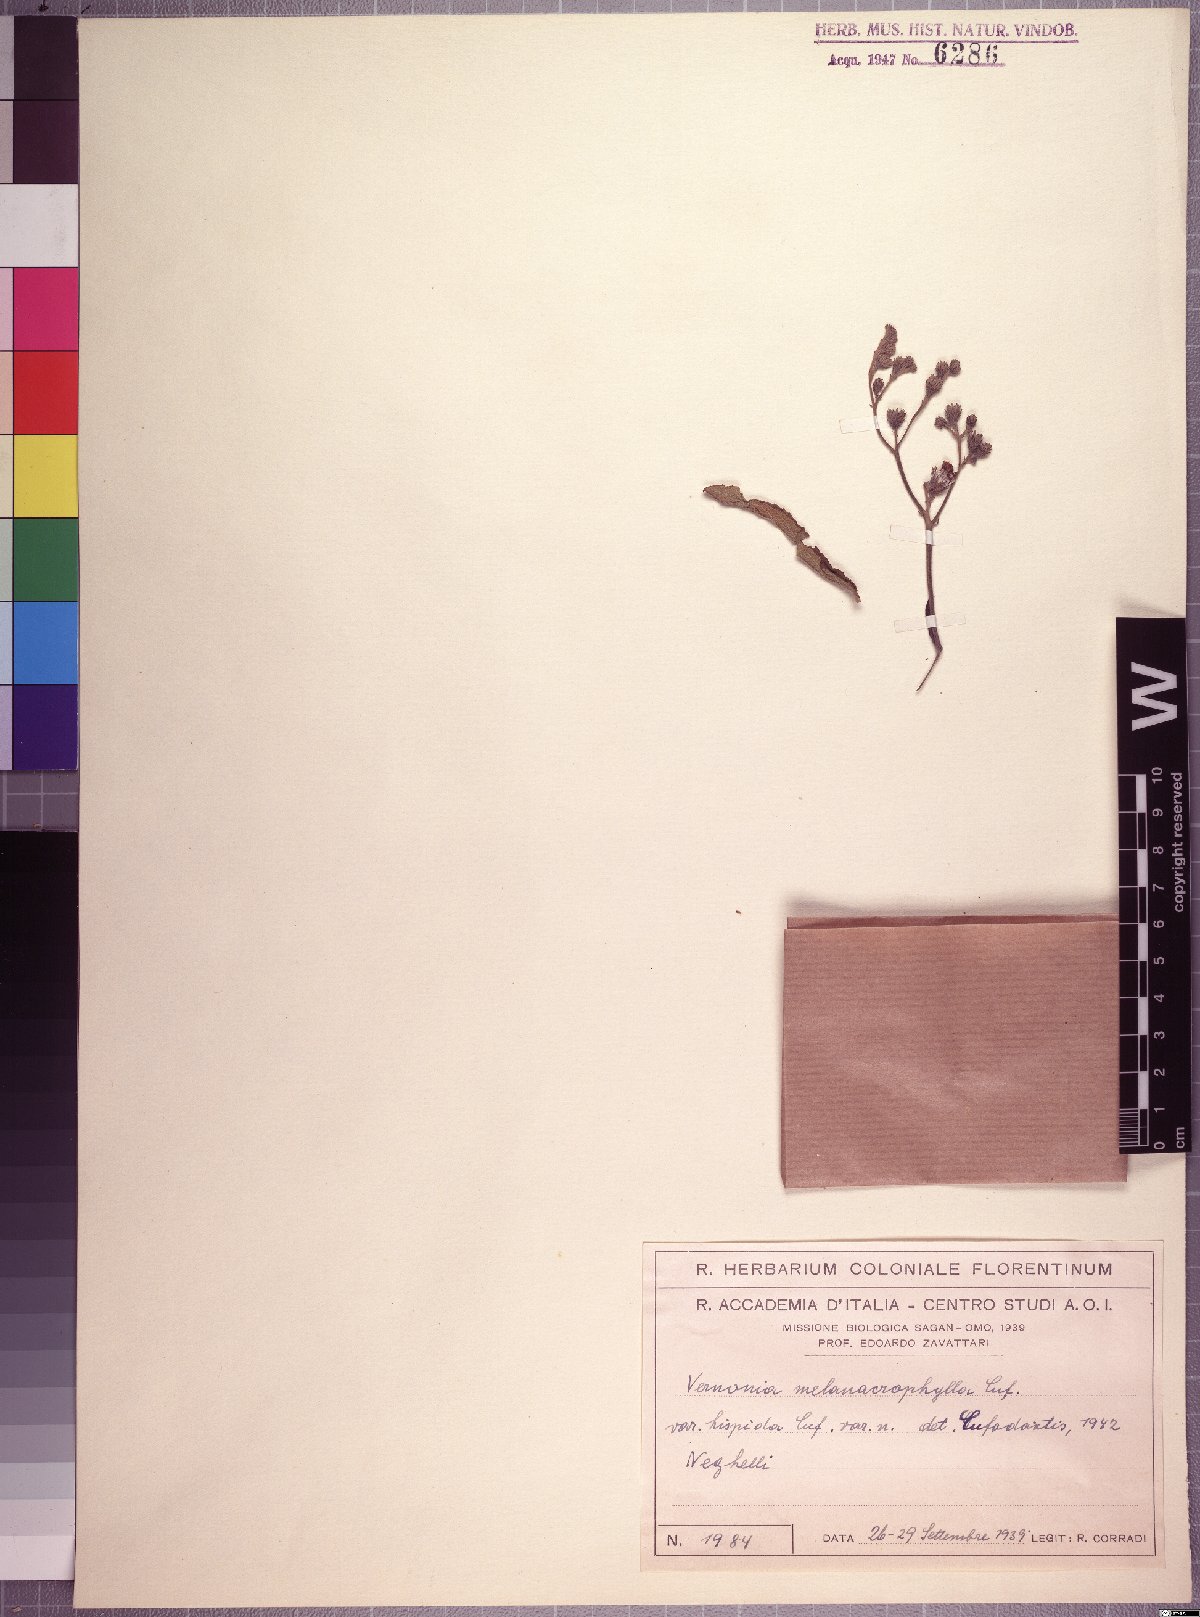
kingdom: Plantae
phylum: Tracheophyta
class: Magnoliopsida
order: Asterales
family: Asteraceae
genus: Orbivestus
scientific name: Orbivestus karaguensis
